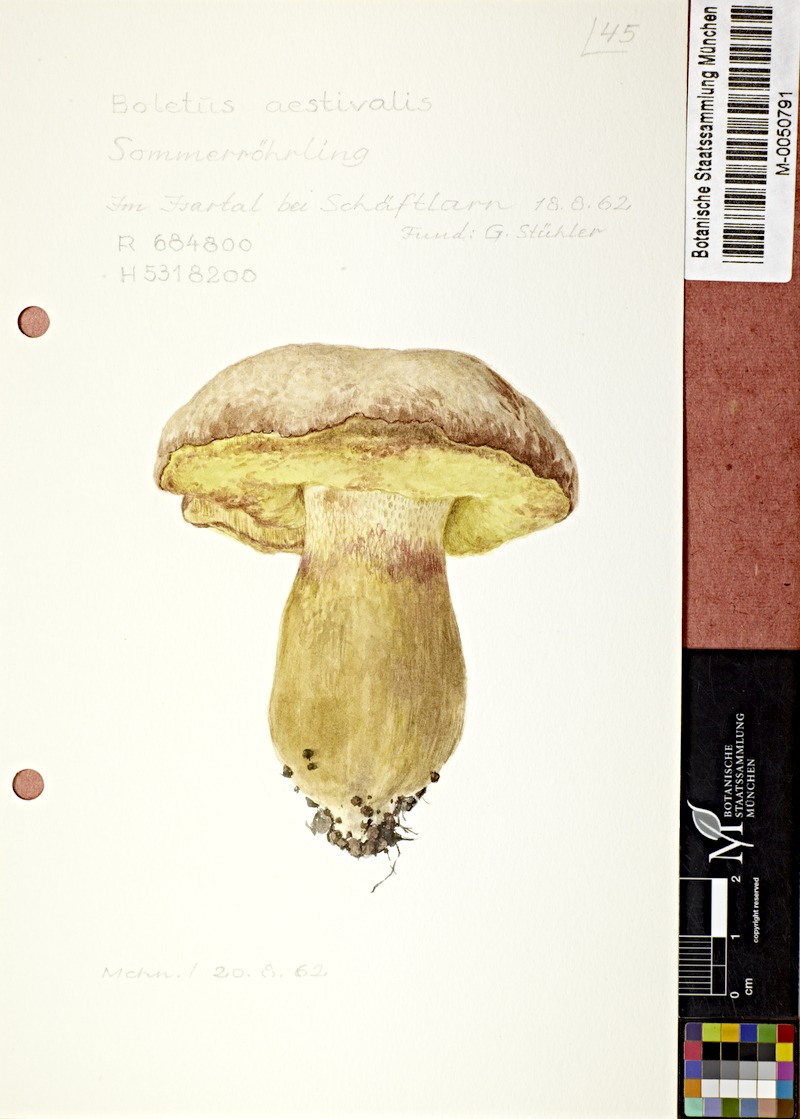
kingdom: Fungi
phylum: Basidiomycota
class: Agaricomycetes
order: Boletales
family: Boletaceae
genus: Boletus
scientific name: Boletus reticulatus
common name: Summer bolete
